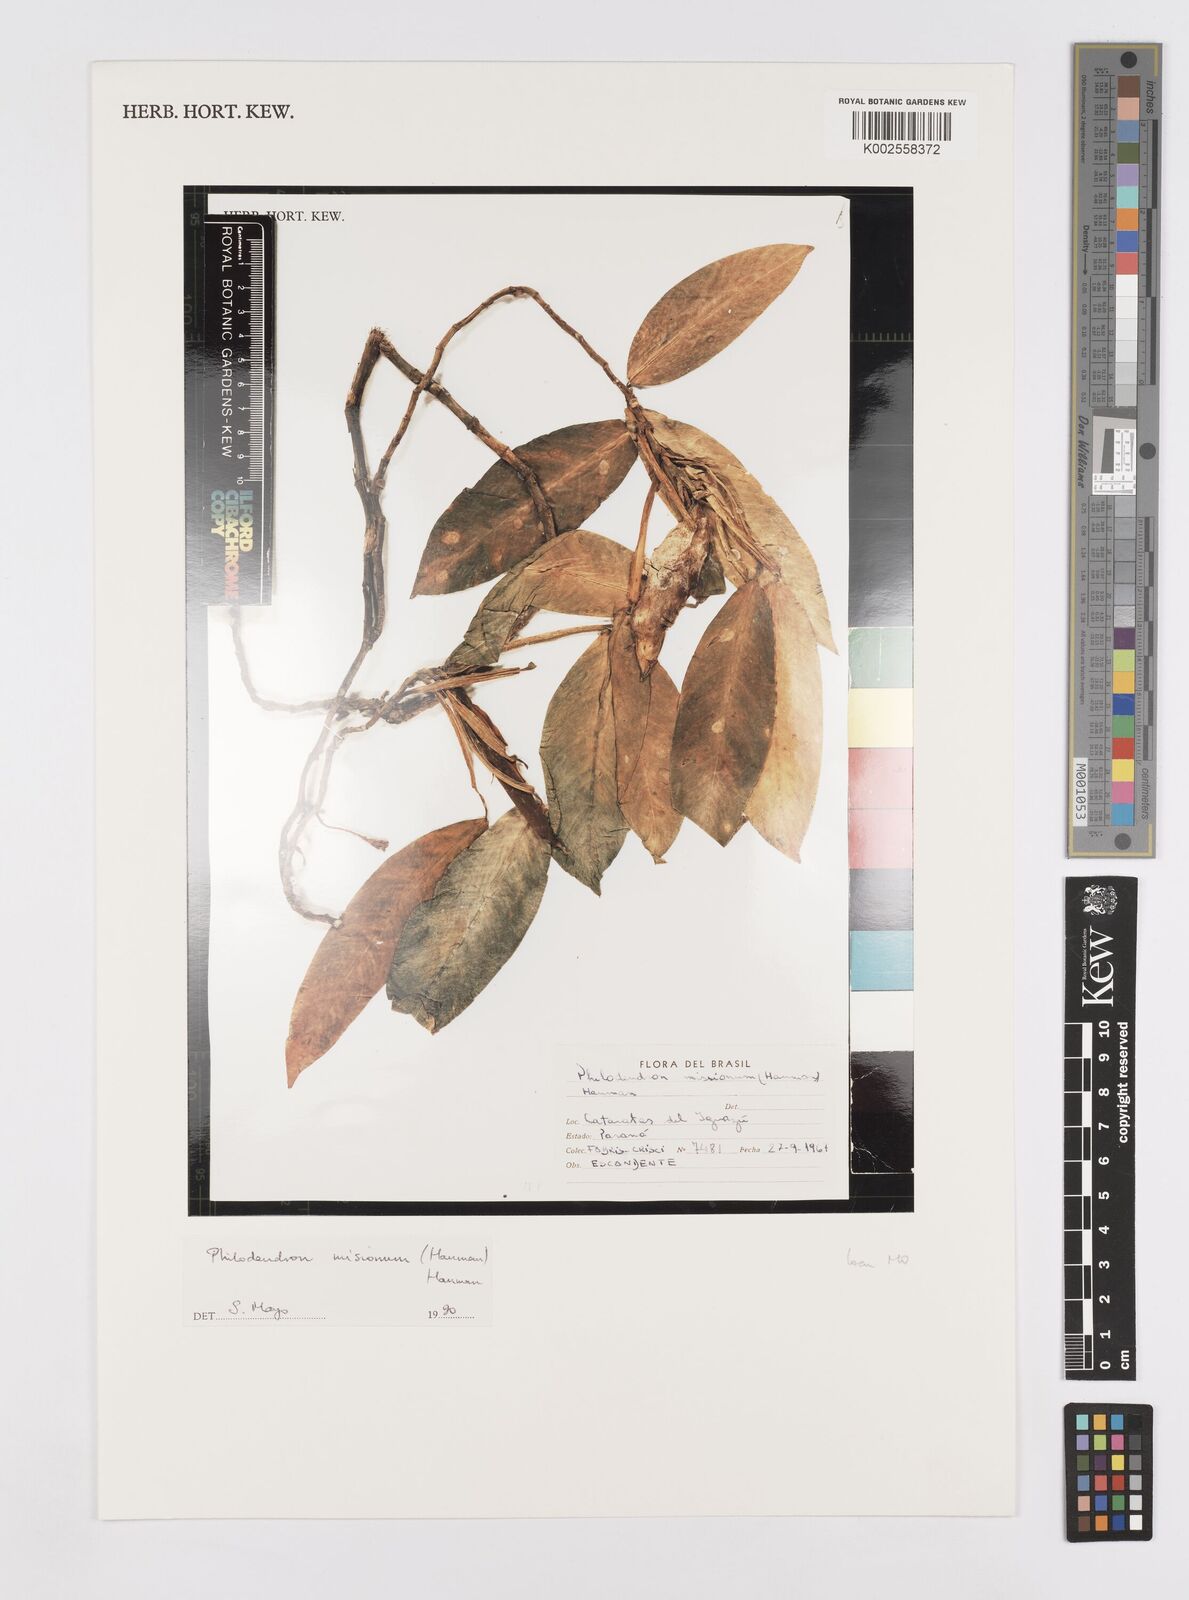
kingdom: Plantae
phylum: Tracheophyta
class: Liliopsida
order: Alismatales
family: Araceae
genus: Philodendron
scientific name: Philodendron missionum
